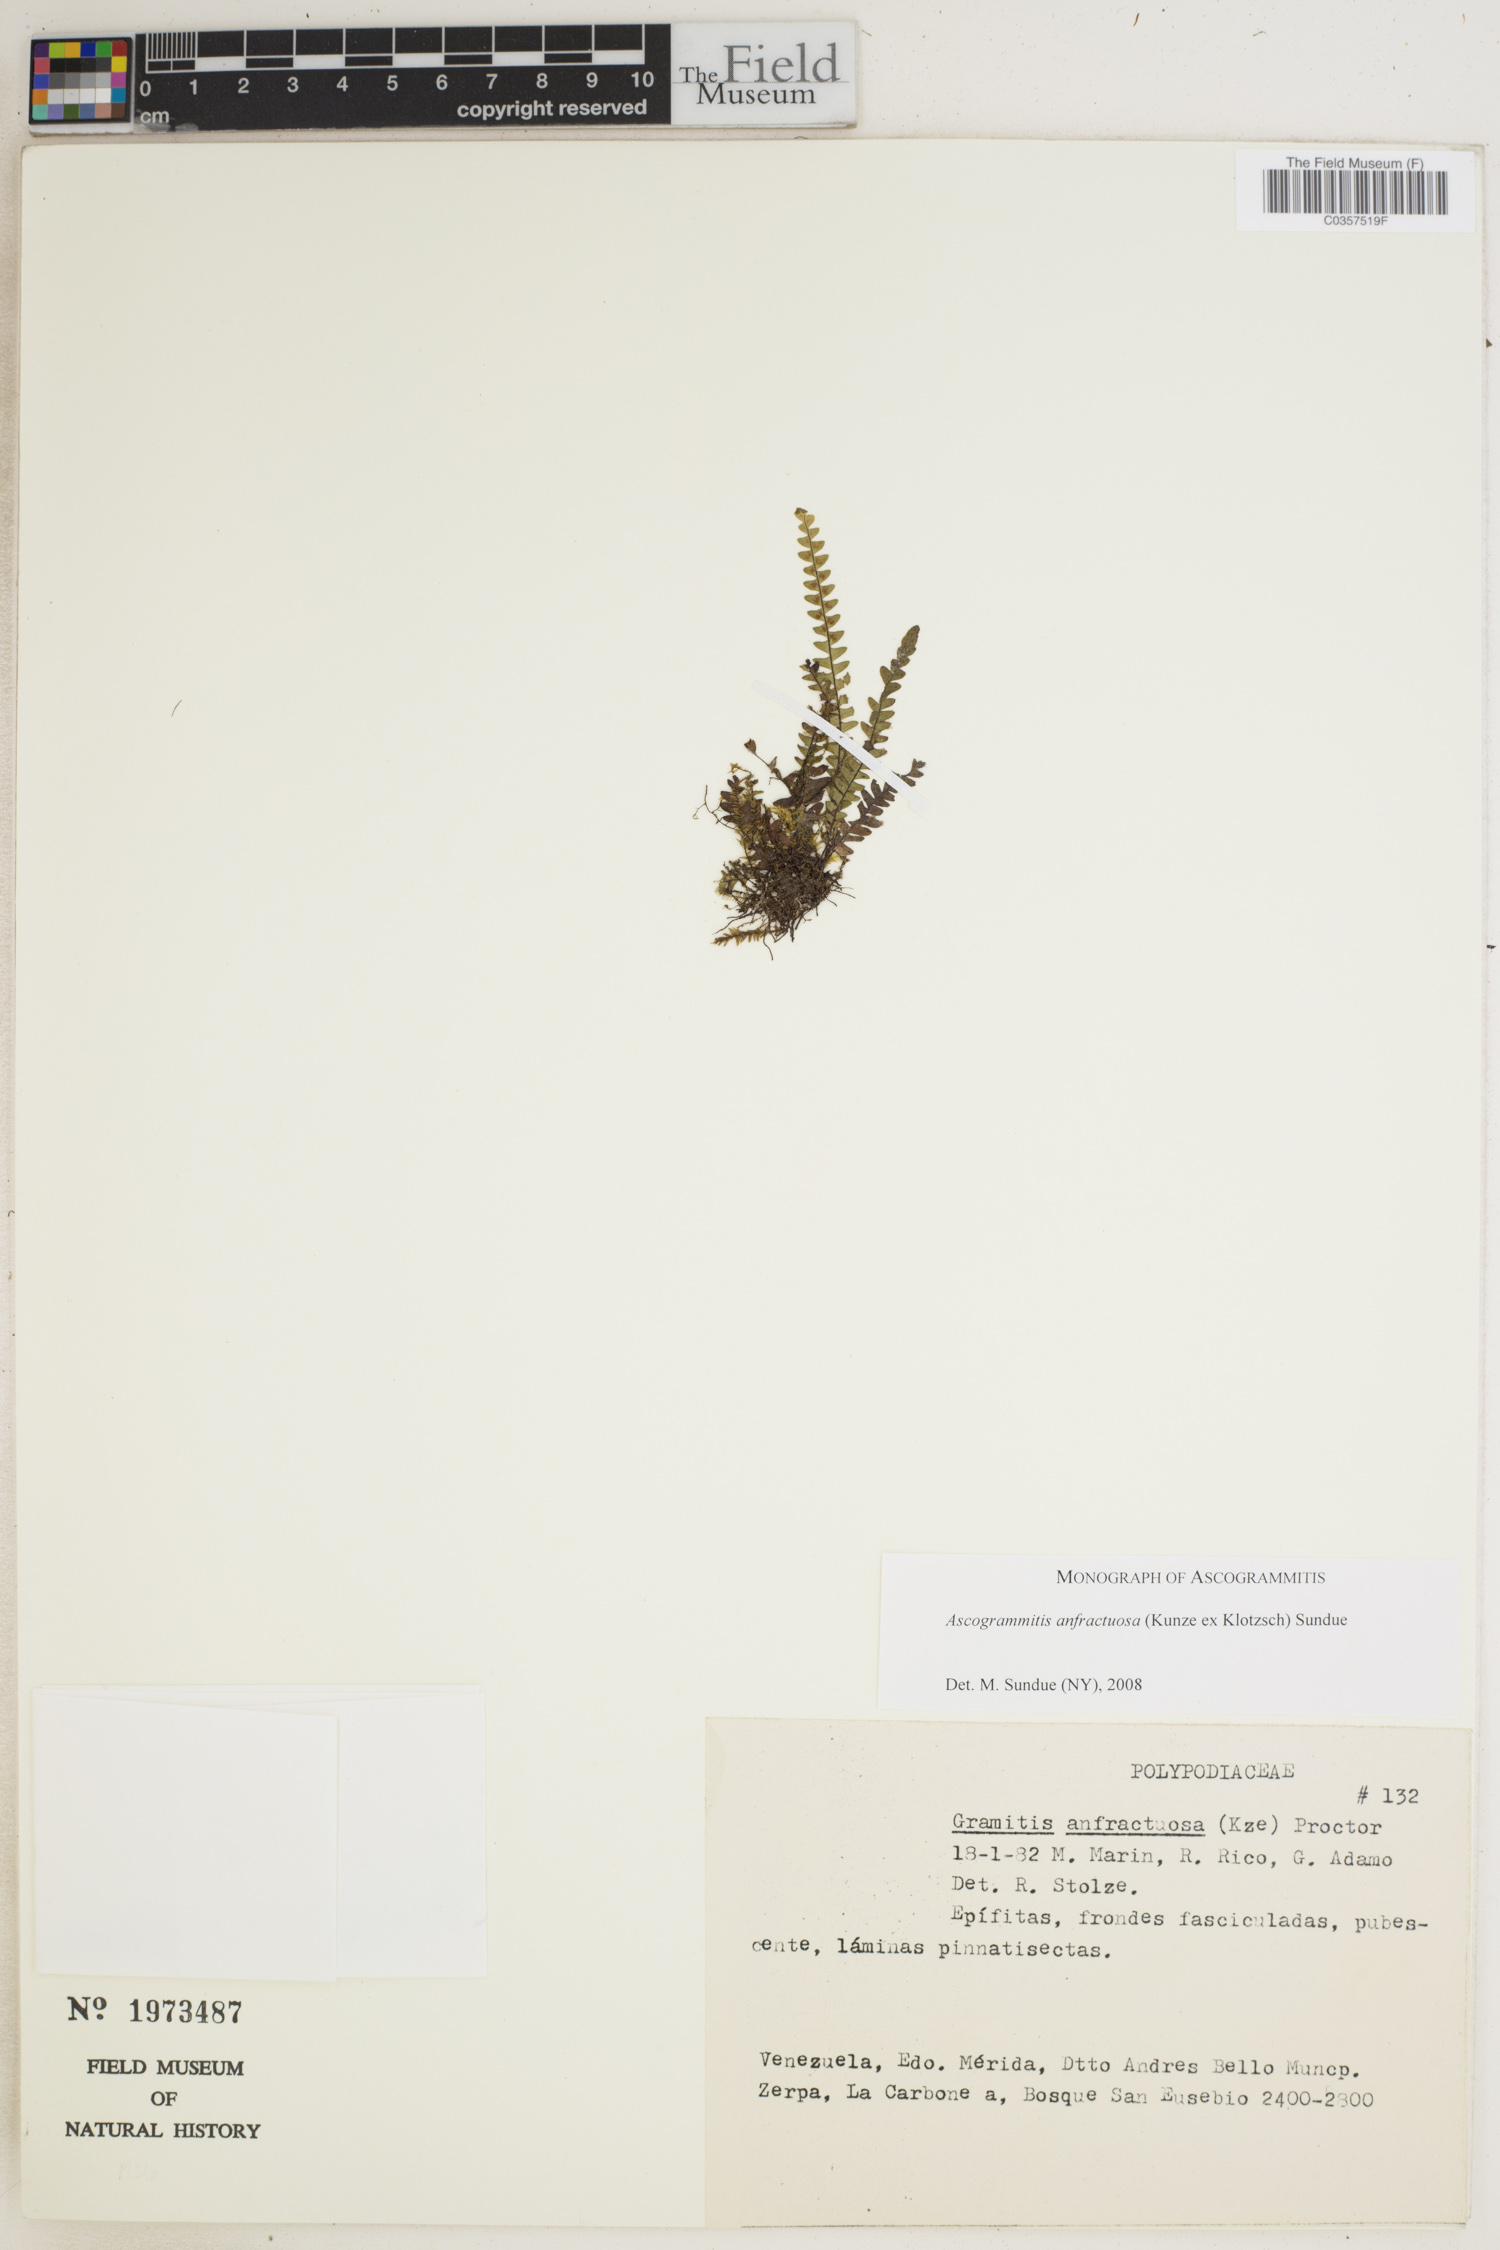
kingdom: Plantae
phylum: Tracheophyta
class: Polypodiopsida
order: Polypodiales
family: Polypodiaceae
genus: Ascogrammitis
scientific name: Ascogrammitis anfractuosa
